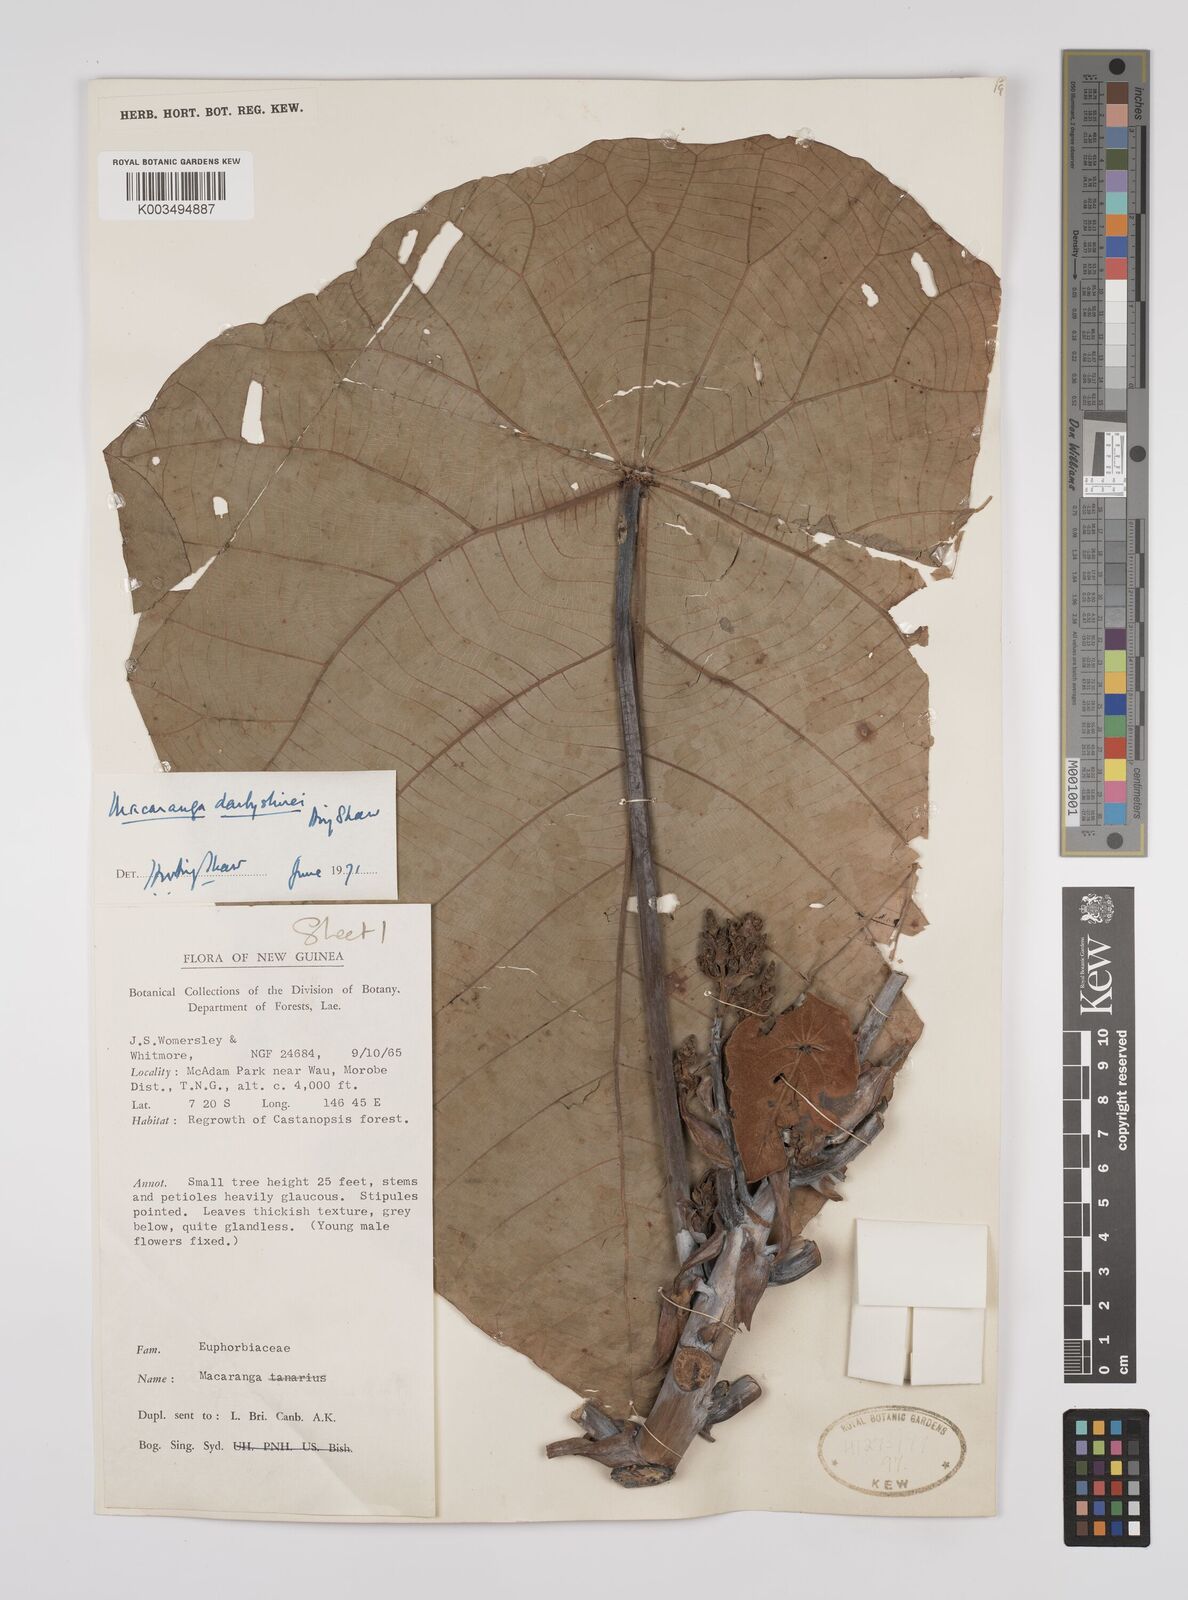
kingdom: Plantae
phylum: Tracheophyta
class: Magnoliopsida
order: Malpighiales
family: Euphorbiaceae
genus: Macaranga
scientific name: Macaranga darbyshirei
